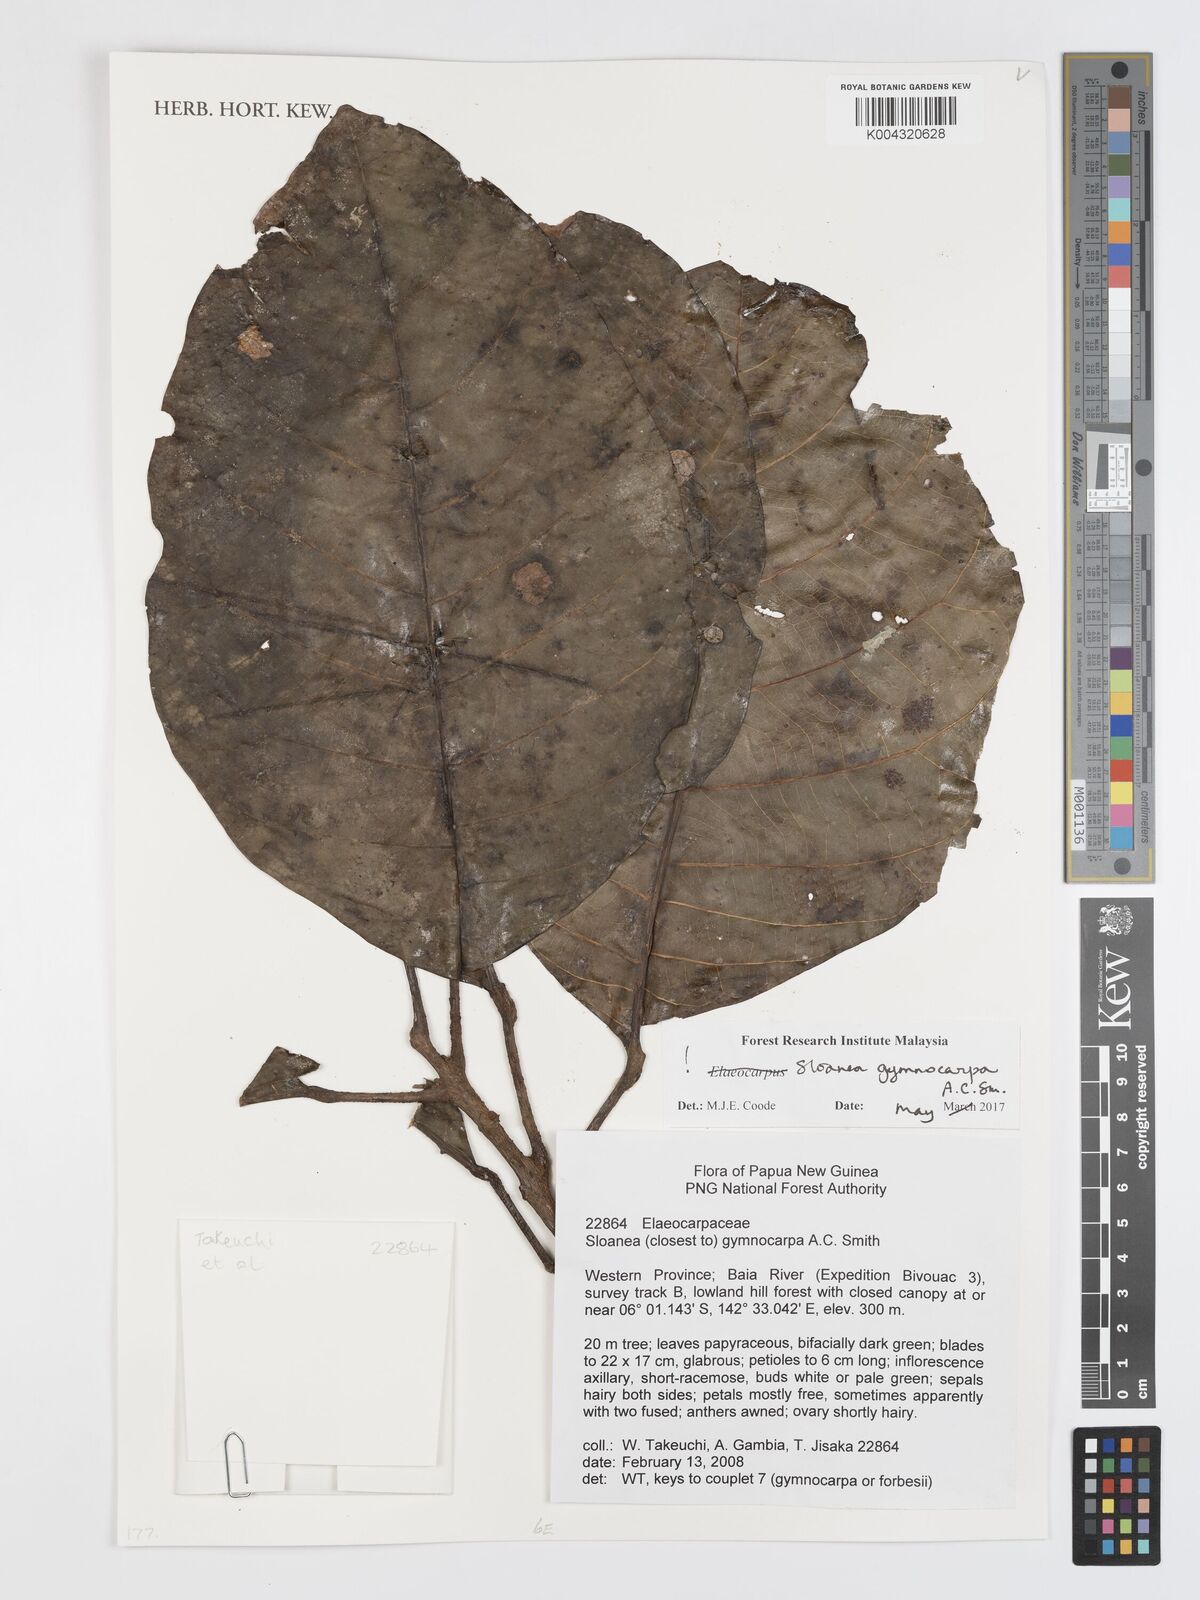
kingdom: Plantae
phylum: Tracheophyta
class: Magnoliopsida
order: Oxalidales
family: Elaeocarpaceae
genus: Sloanea
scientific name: Sloanea gymnocarpa
